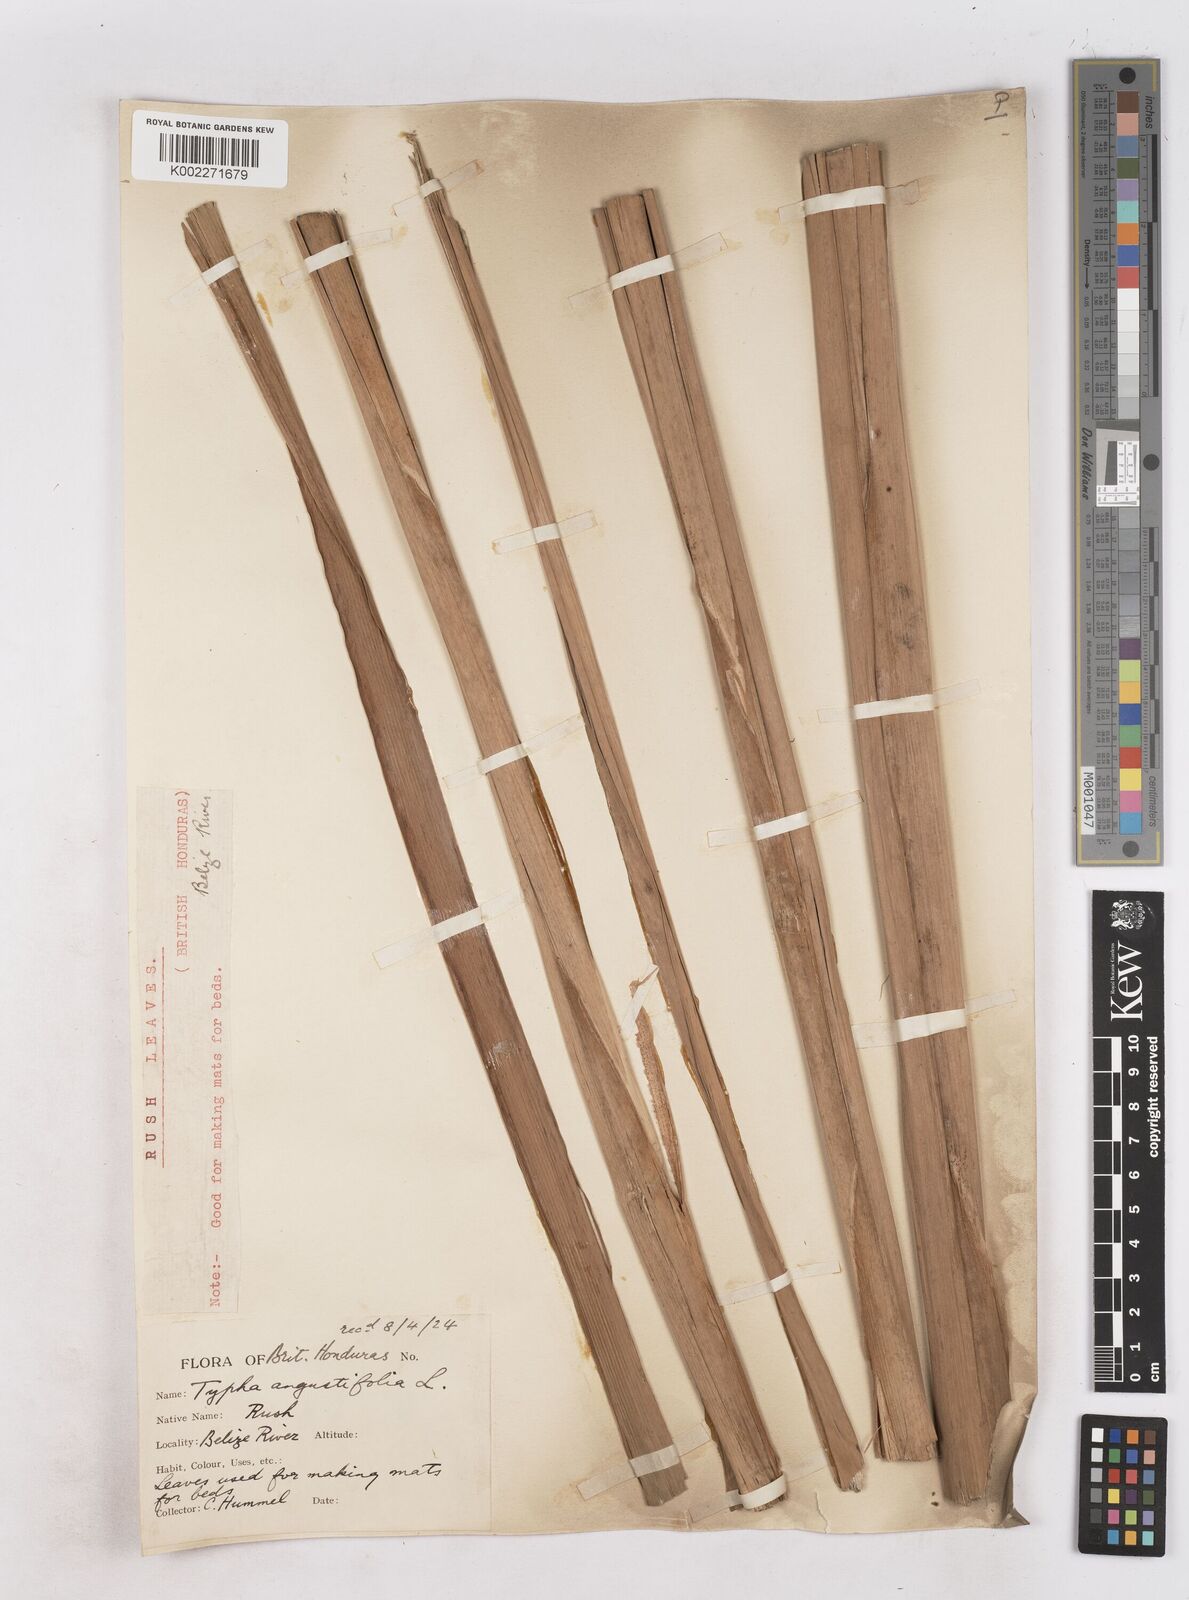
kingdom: Plantae
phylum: Tracheophyta
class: Liliopsida
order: Poales
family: Typhaceae
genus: Typha
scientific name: Typha domingensis
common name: Southern cattail
